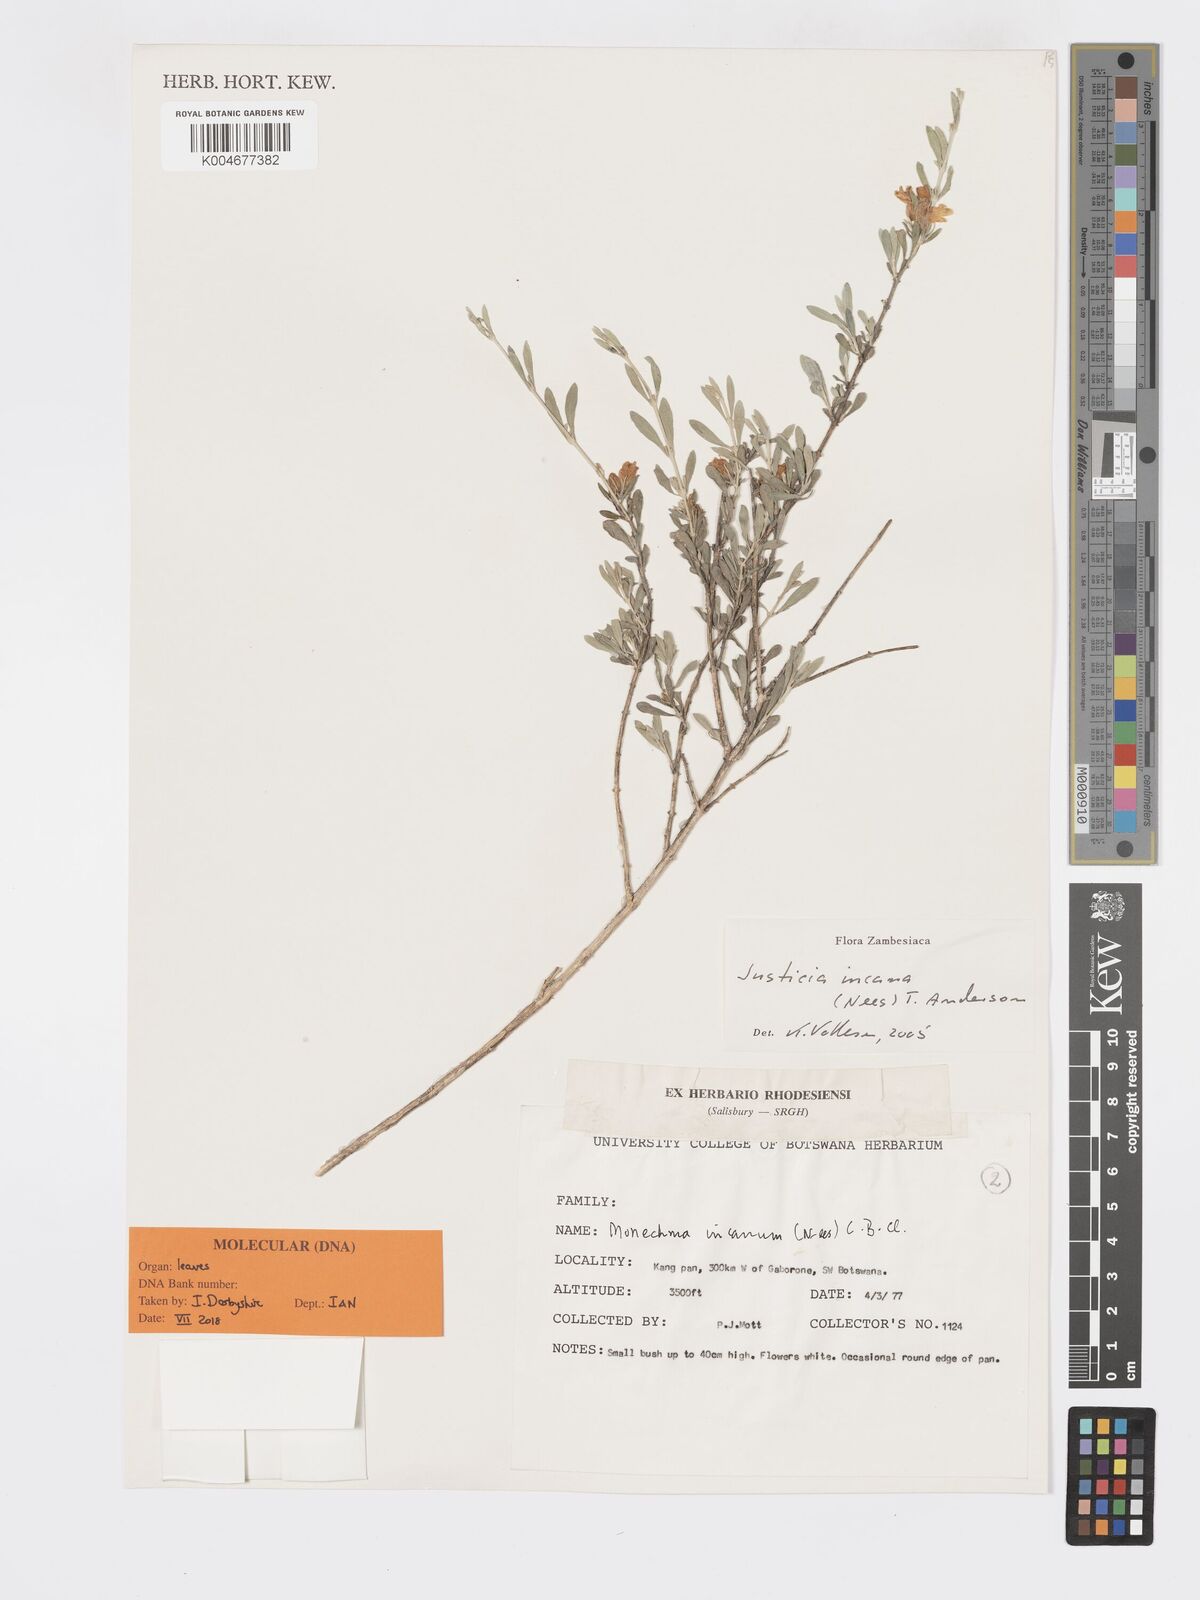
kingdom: Plantae
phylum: Tracheophyta
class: Magnoliopsida
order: Lamiales
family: Acanthaceae
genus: Pogonospermum
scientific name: Pogonospermum
